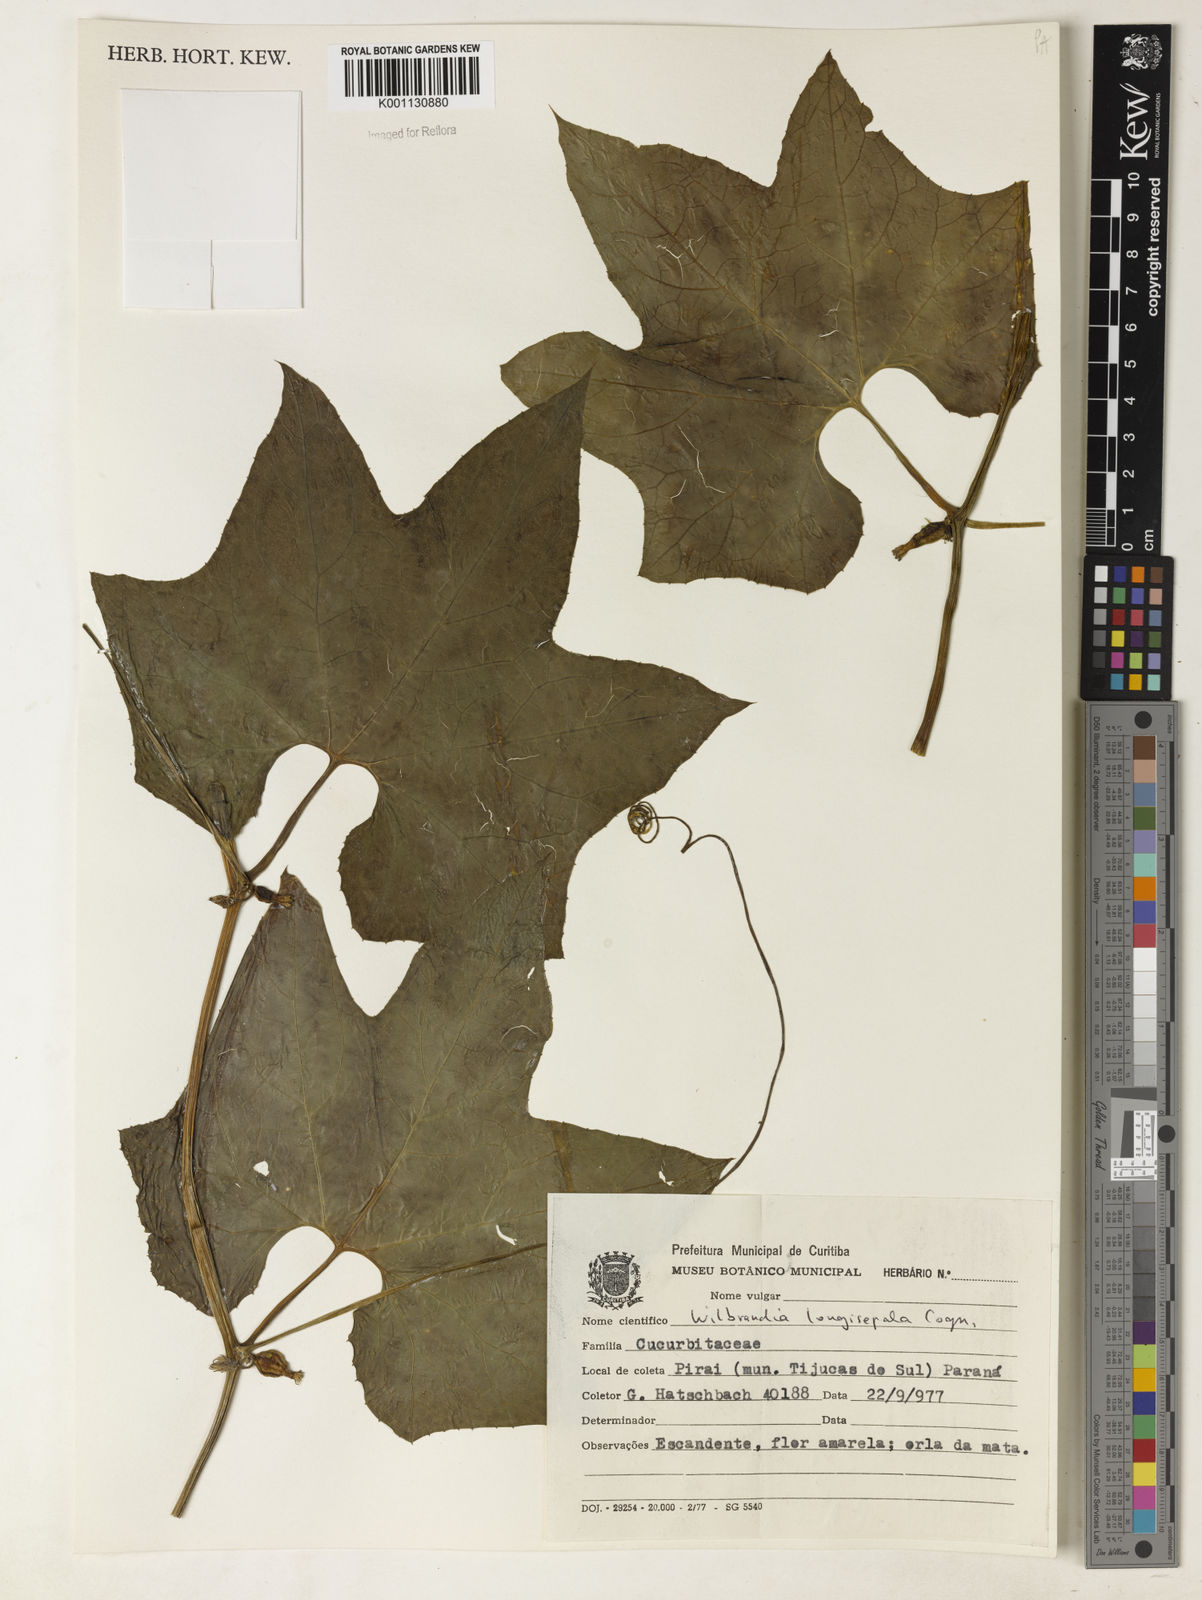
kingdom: Plantae
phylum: Tracheophyta
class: Magnoliopsida
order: Cucurbitales
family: Cucurbitaceae
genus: Wilbrandia
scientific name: Wilbrandia longisepala
